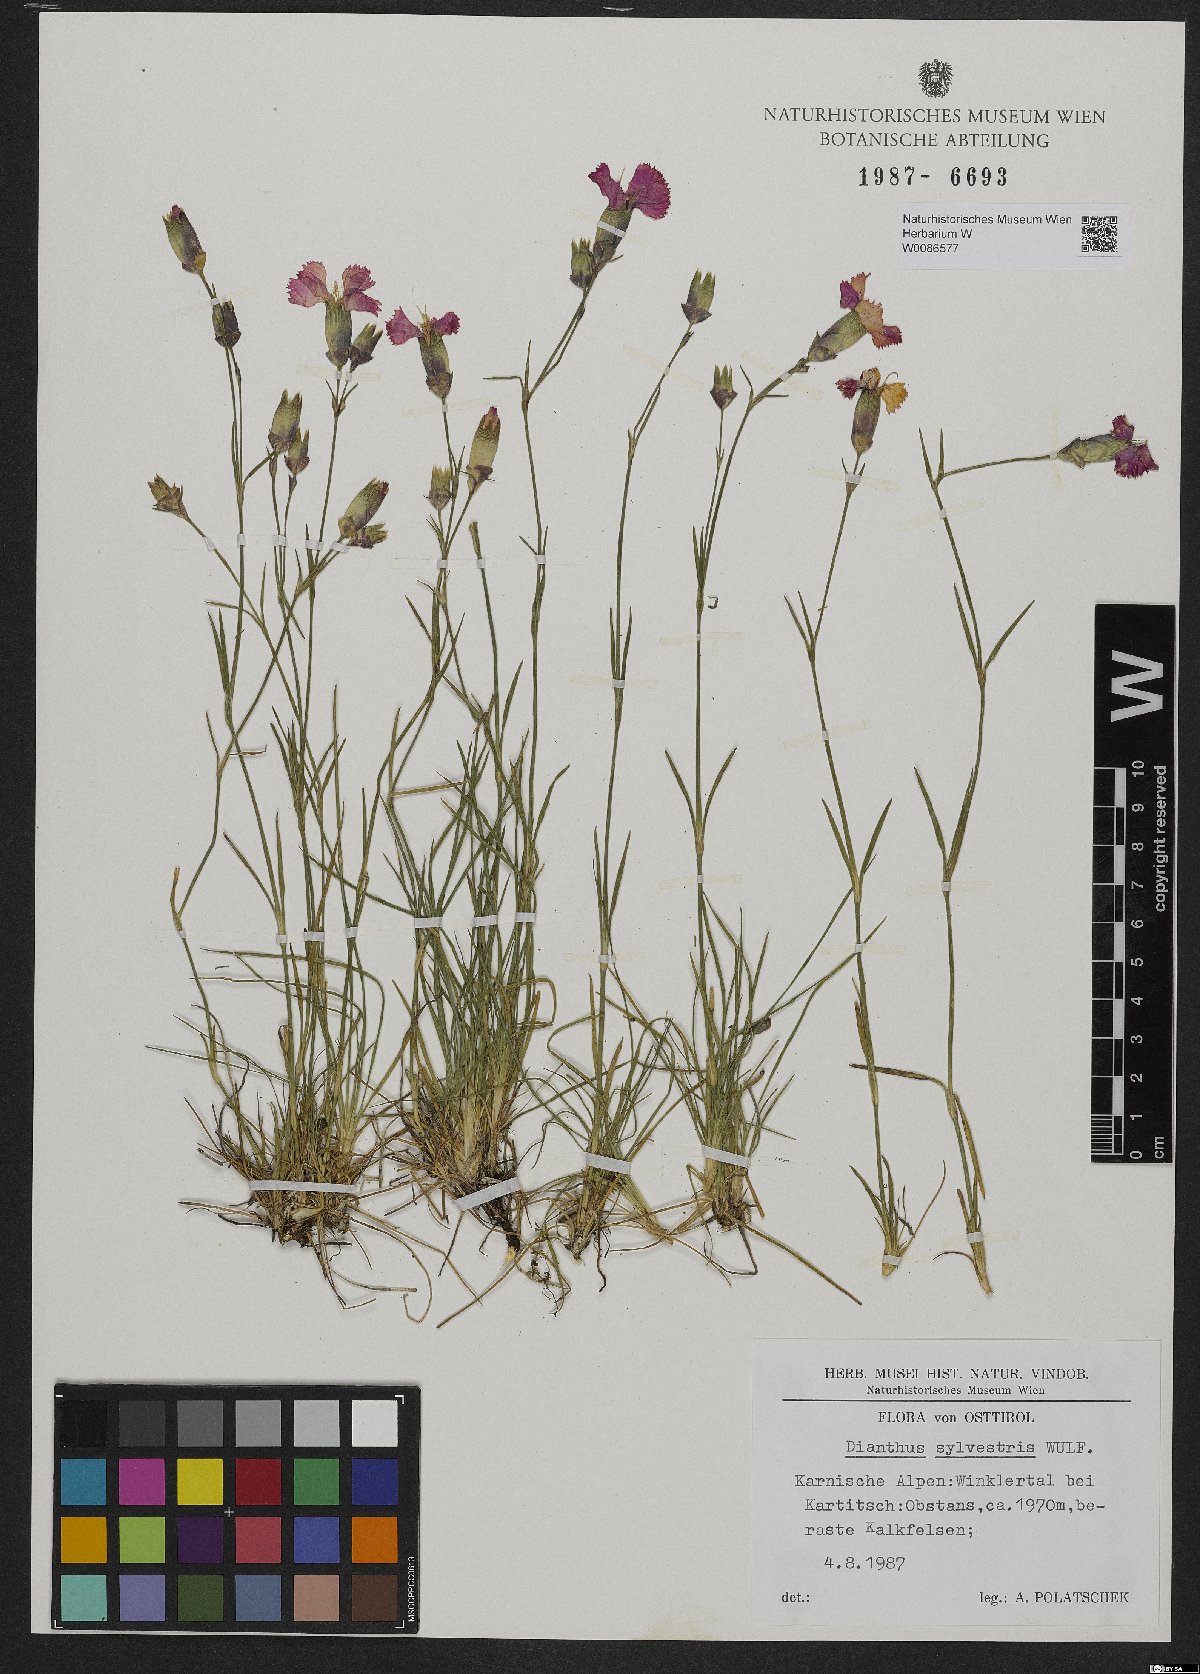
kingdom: Plantae
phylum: Tracheophyta
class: Magnoliopsida
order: Caryophyllales
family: Caryophyllaceae
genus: Dianthus
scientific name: Dianthus sylvestris
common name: Wood pink
